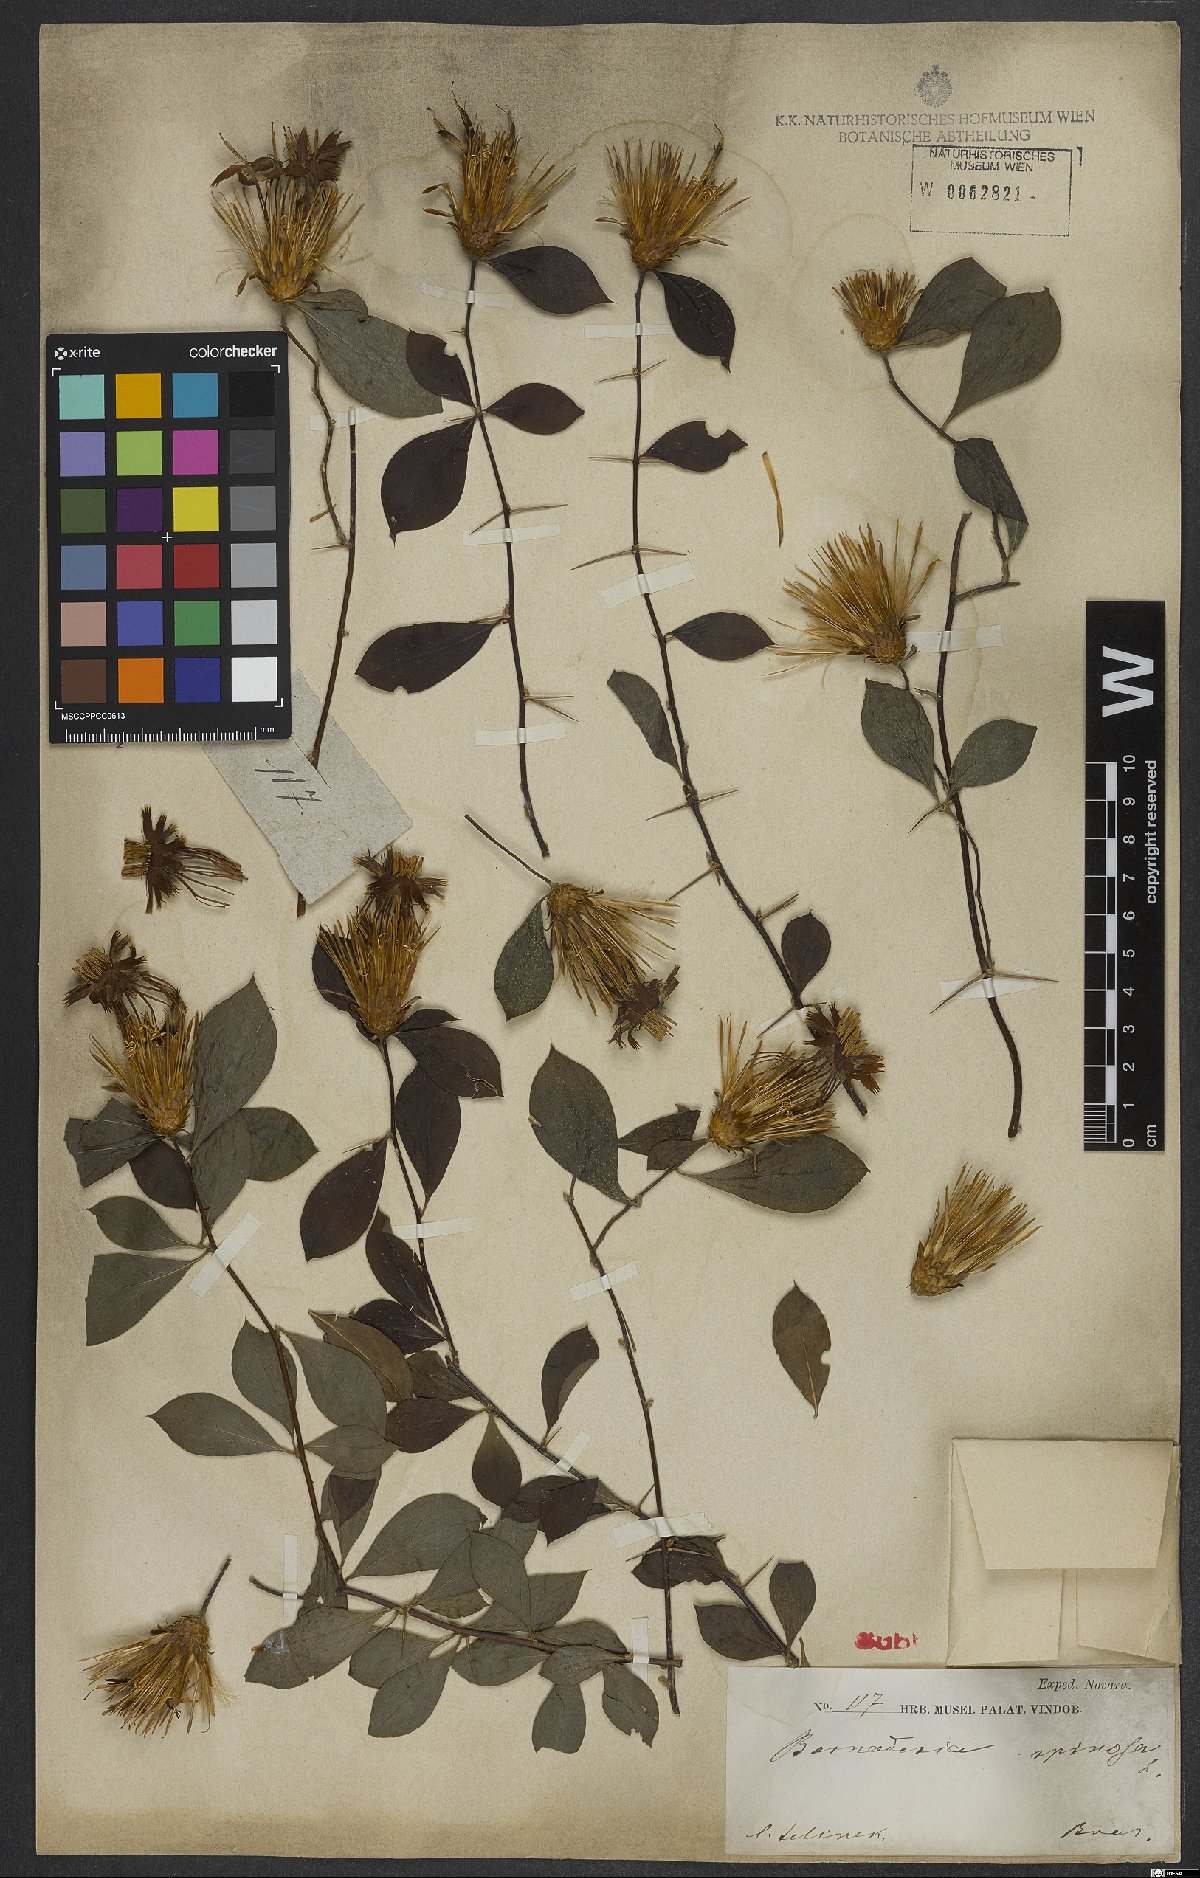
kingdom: Plantae
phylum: Tracheophyta
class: Magnoliopsida
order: Asterales
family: Asteraceae
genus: Barnadesia
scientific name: Barnadesia caryophylla
